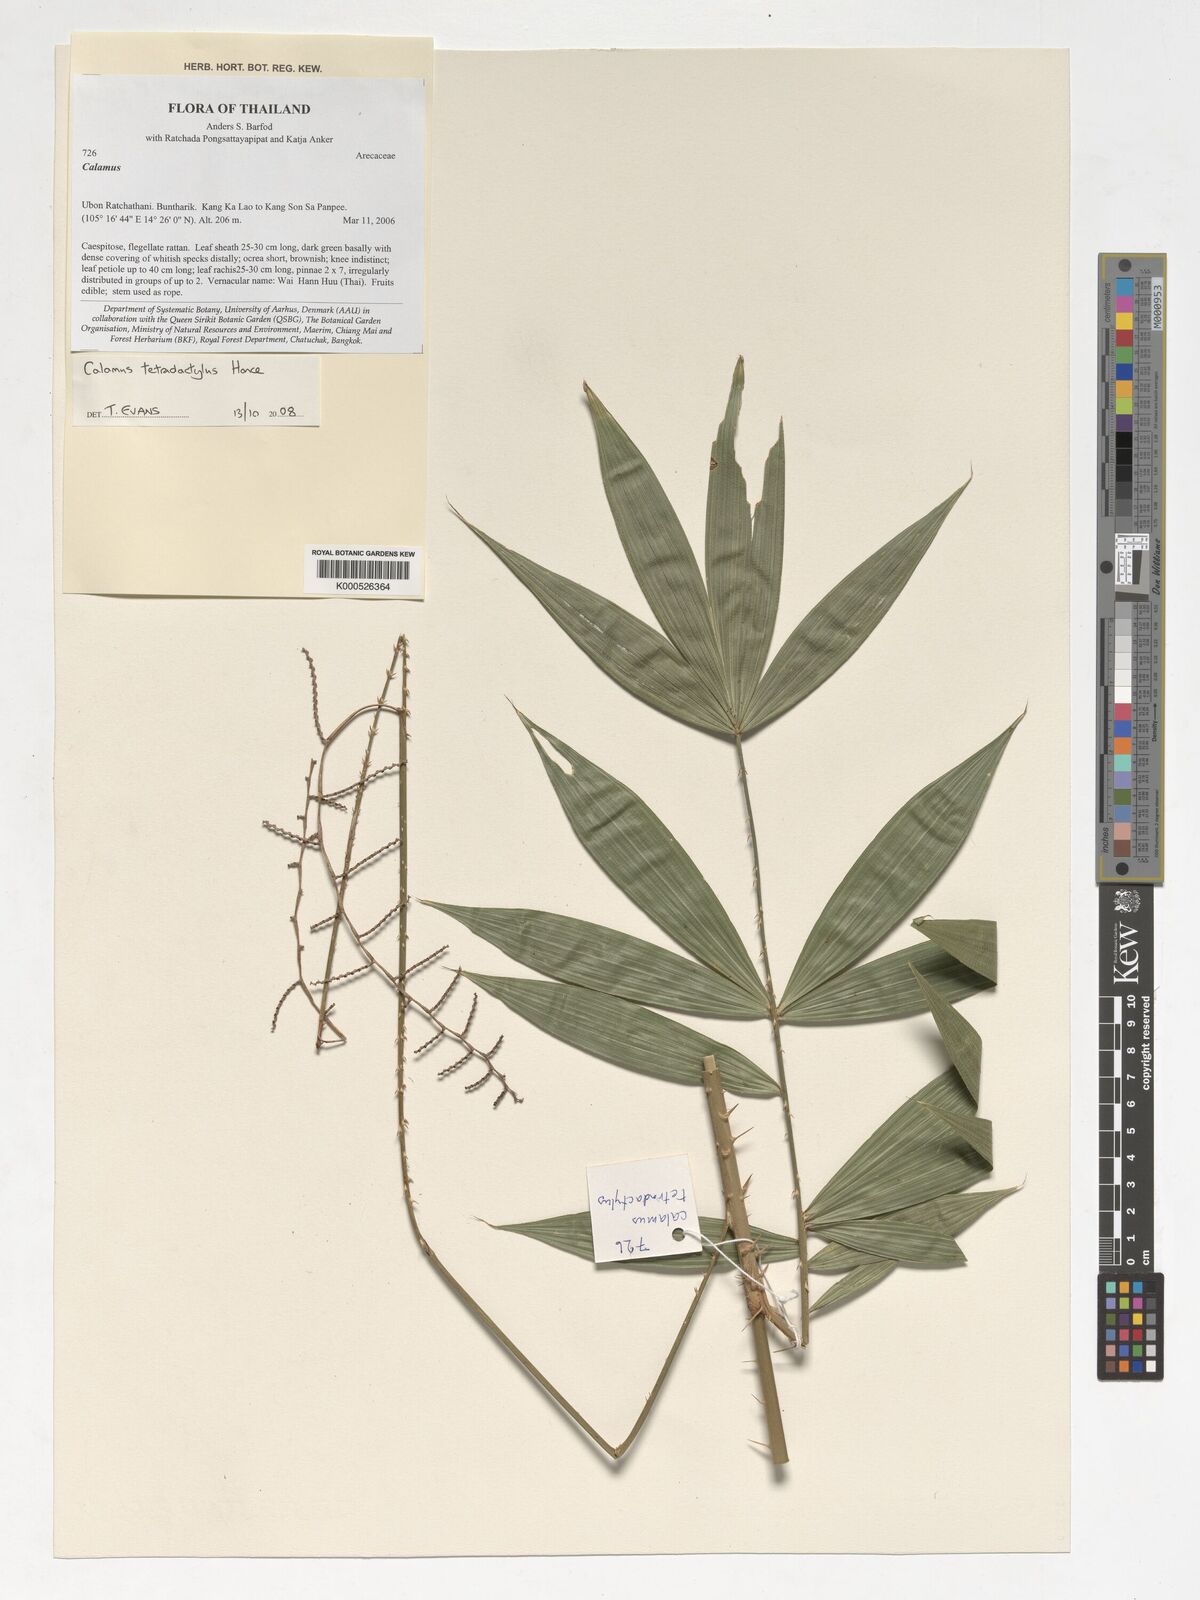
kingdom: Plantae
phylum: Tracheophyta
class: Liliopsida
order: Arecales
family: Arecaceae
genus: Calamus
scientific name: Calamus tetradactylus
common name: White rattan
